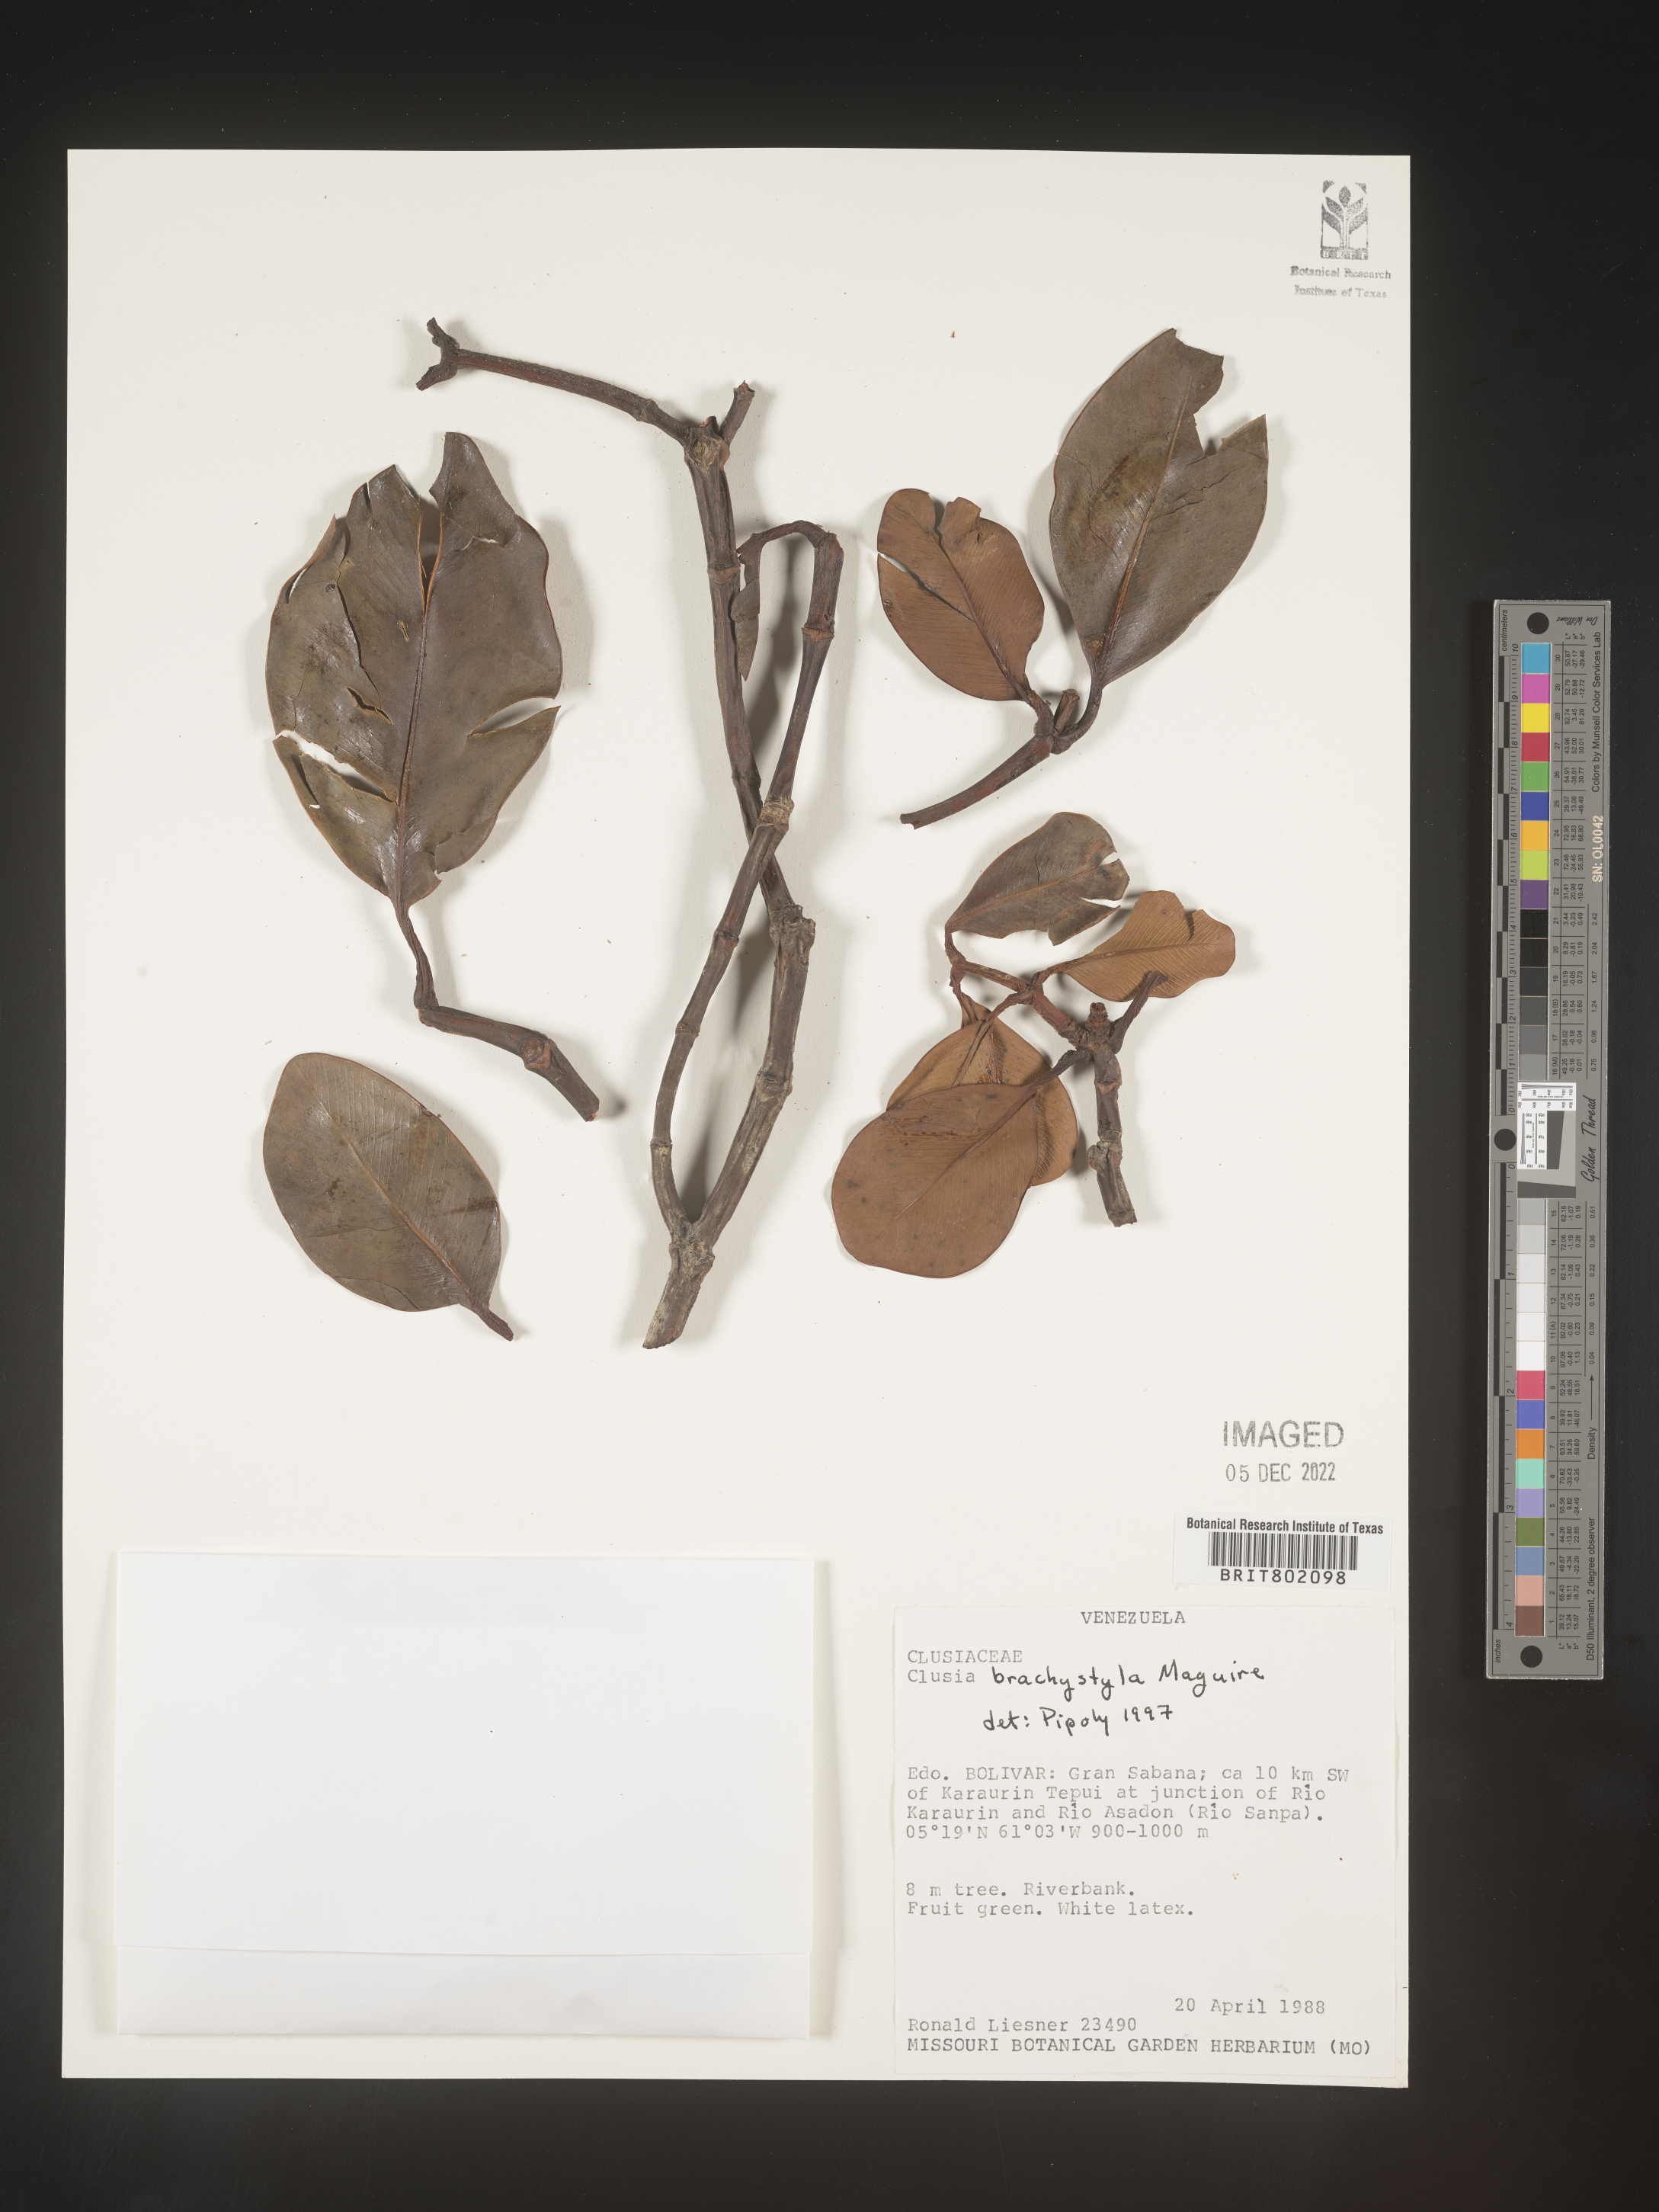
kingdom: Plantae
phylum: Tracheophyta
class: Magnoliopsida
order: Malpighiales
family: Clusiaceae
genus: Clusia
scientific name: Clusia brachystyla
